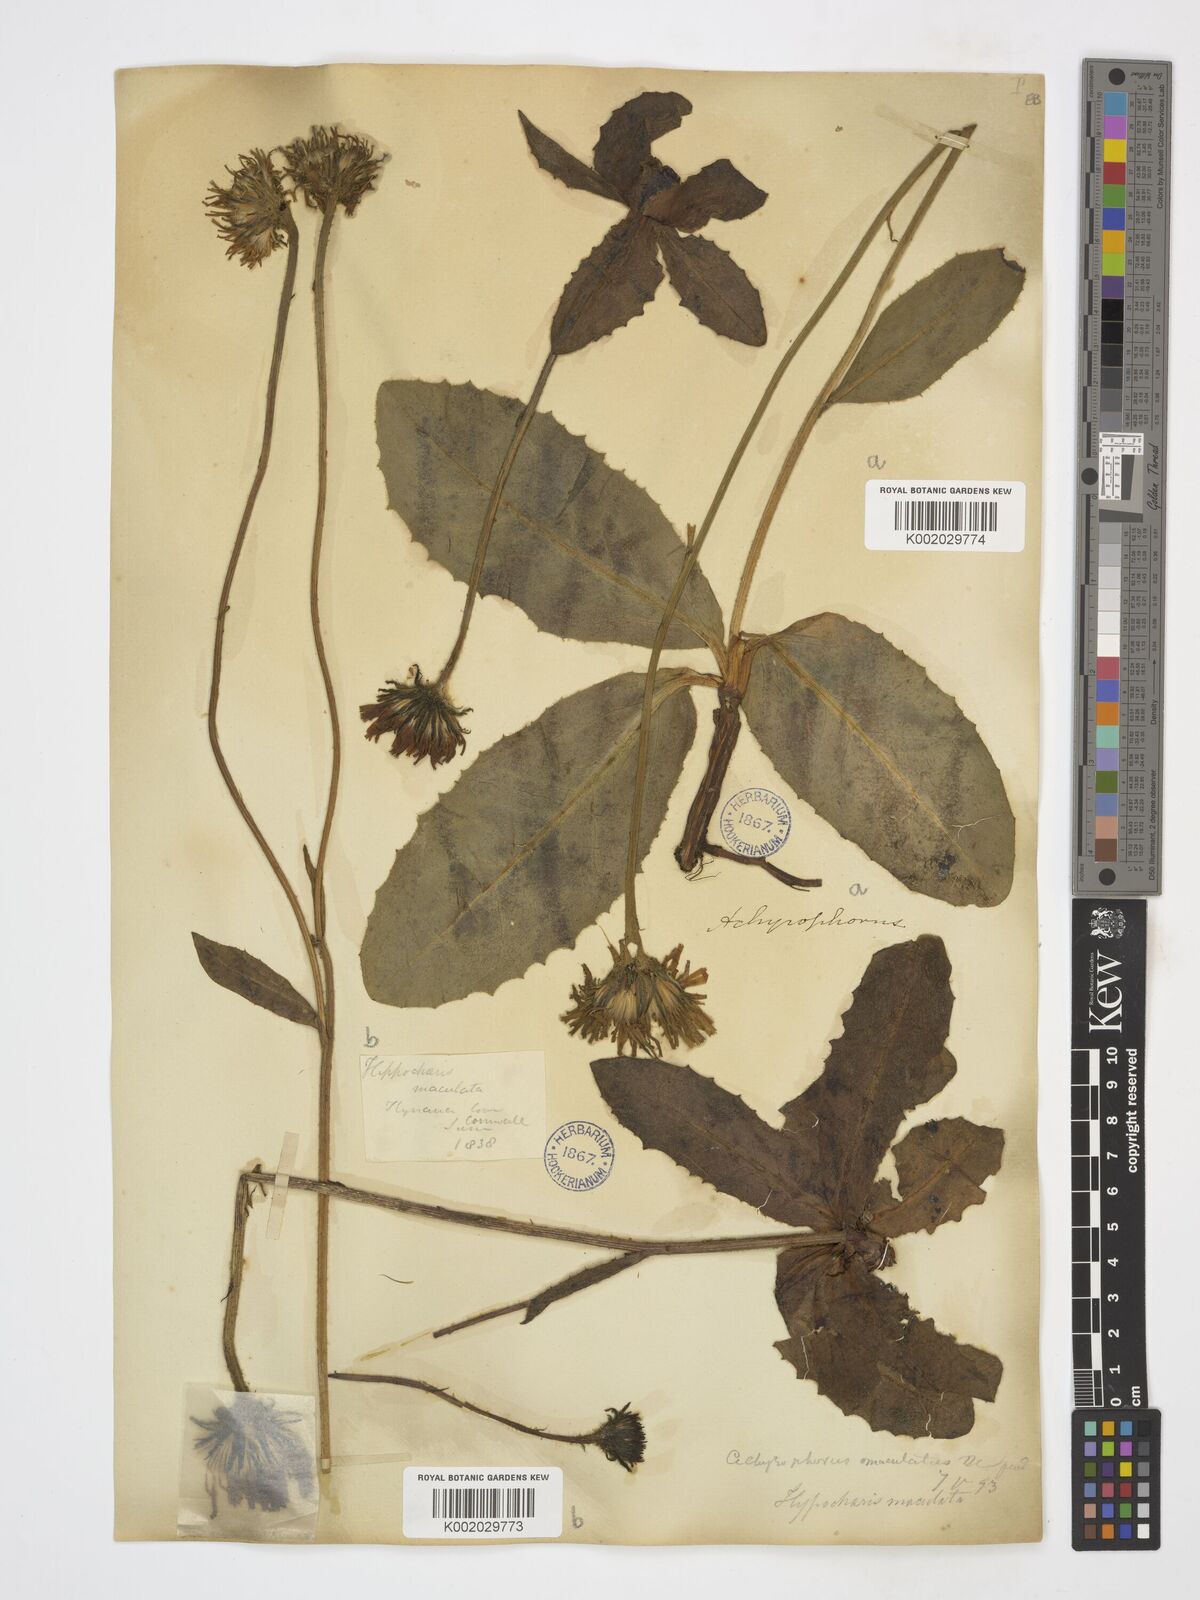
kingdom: Plantae
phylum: Tracheophyta
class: Magnoliopsida
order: Asterales
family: Asteraceae
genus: Trommsdorffia
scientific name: Trommsdorffia maculata
